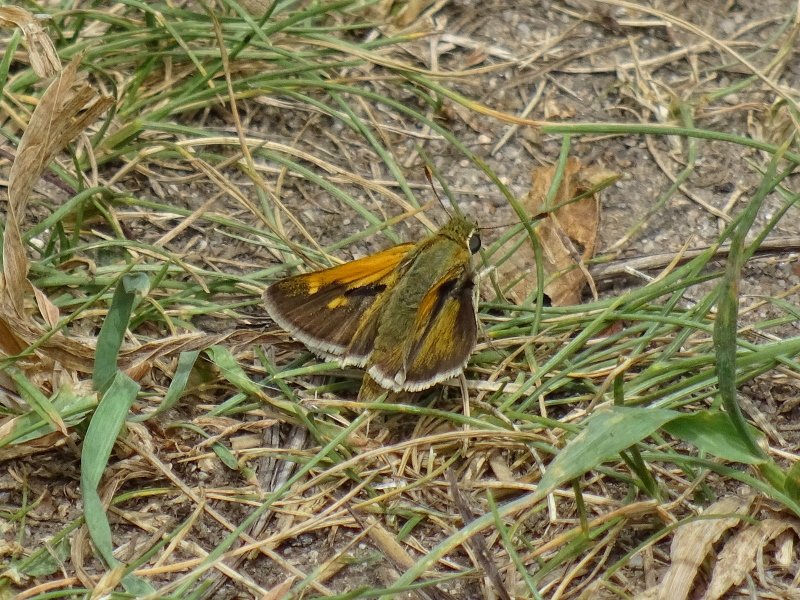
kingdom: Animalia
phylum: Arthropoda
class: Insecta
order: Lepidoptera
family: Hesperiidae
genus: Polites
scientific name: Polites themistocles
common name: Tawny-edged Skipper
